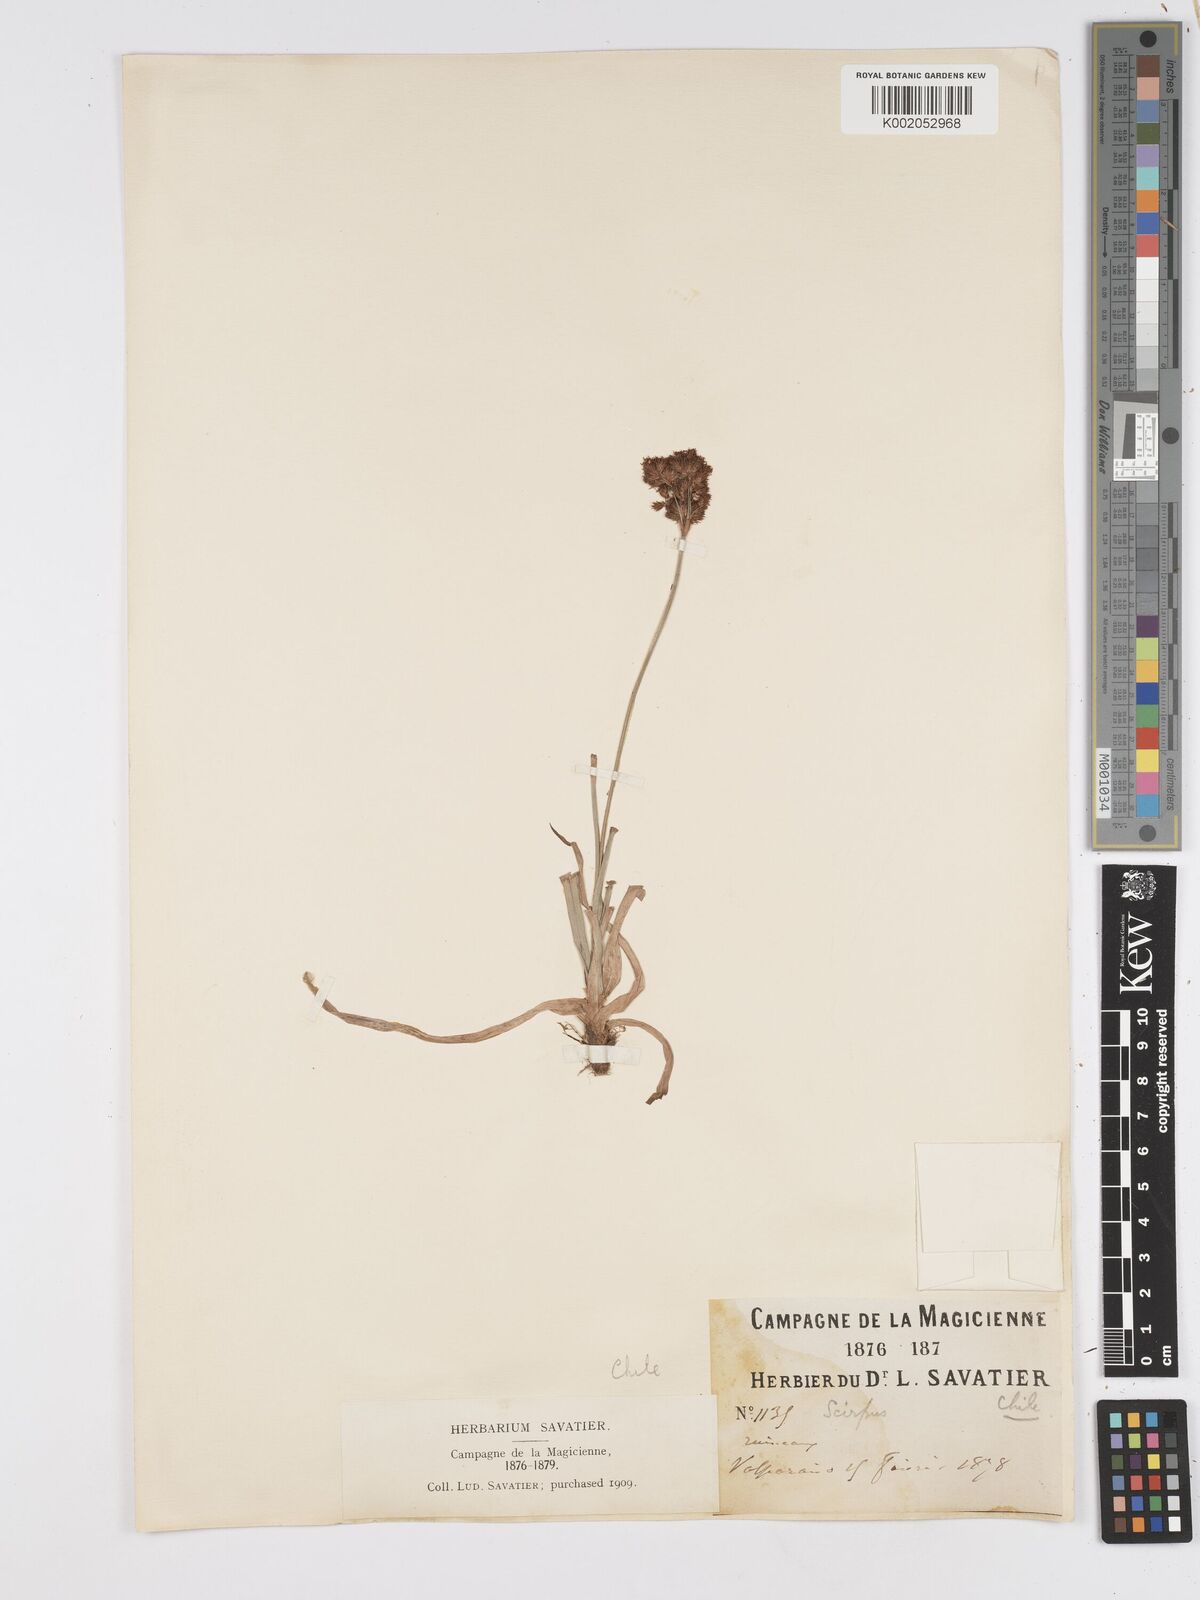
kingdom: Plantae
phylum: Tracheophyta
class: Liliopsida
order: Poales
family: Cyperaceae
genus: Scirpus
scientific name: Scirpus
